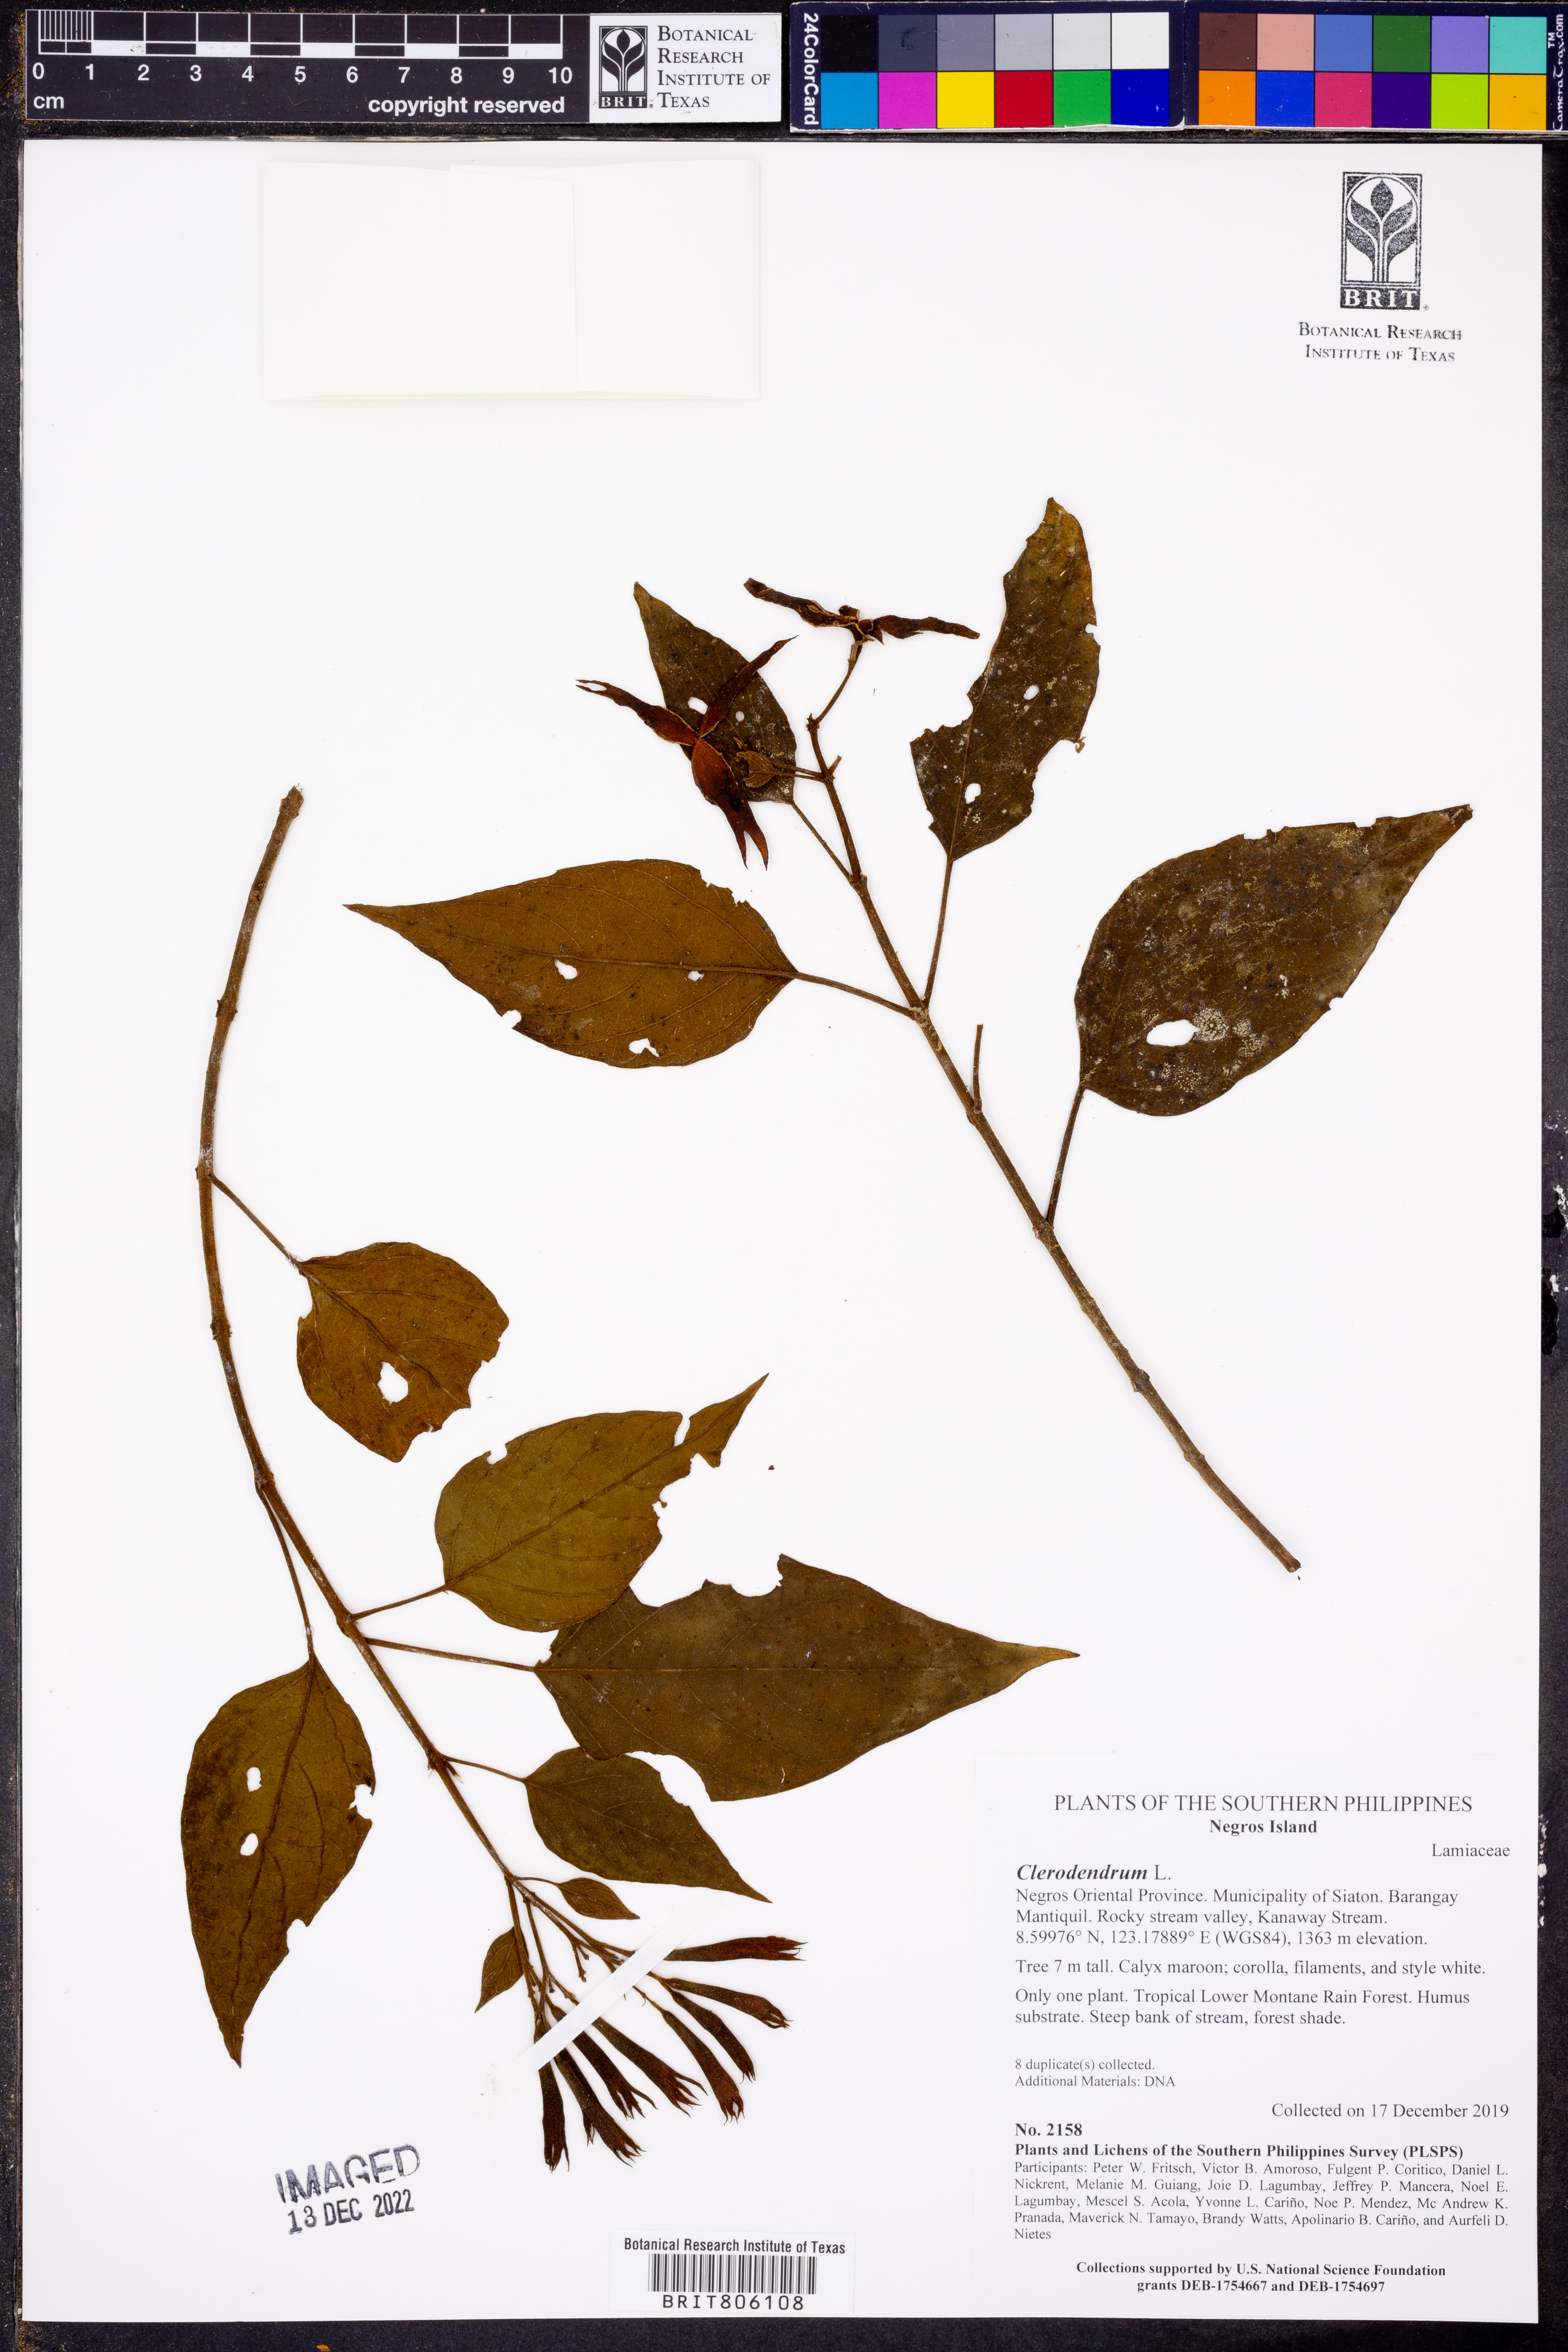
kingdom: Plantae
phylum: Tracheophyta
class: Magnoliopsida
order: Lamiales
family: Lamiaceae
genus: Clerodendrum
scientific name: Clerodendrum
